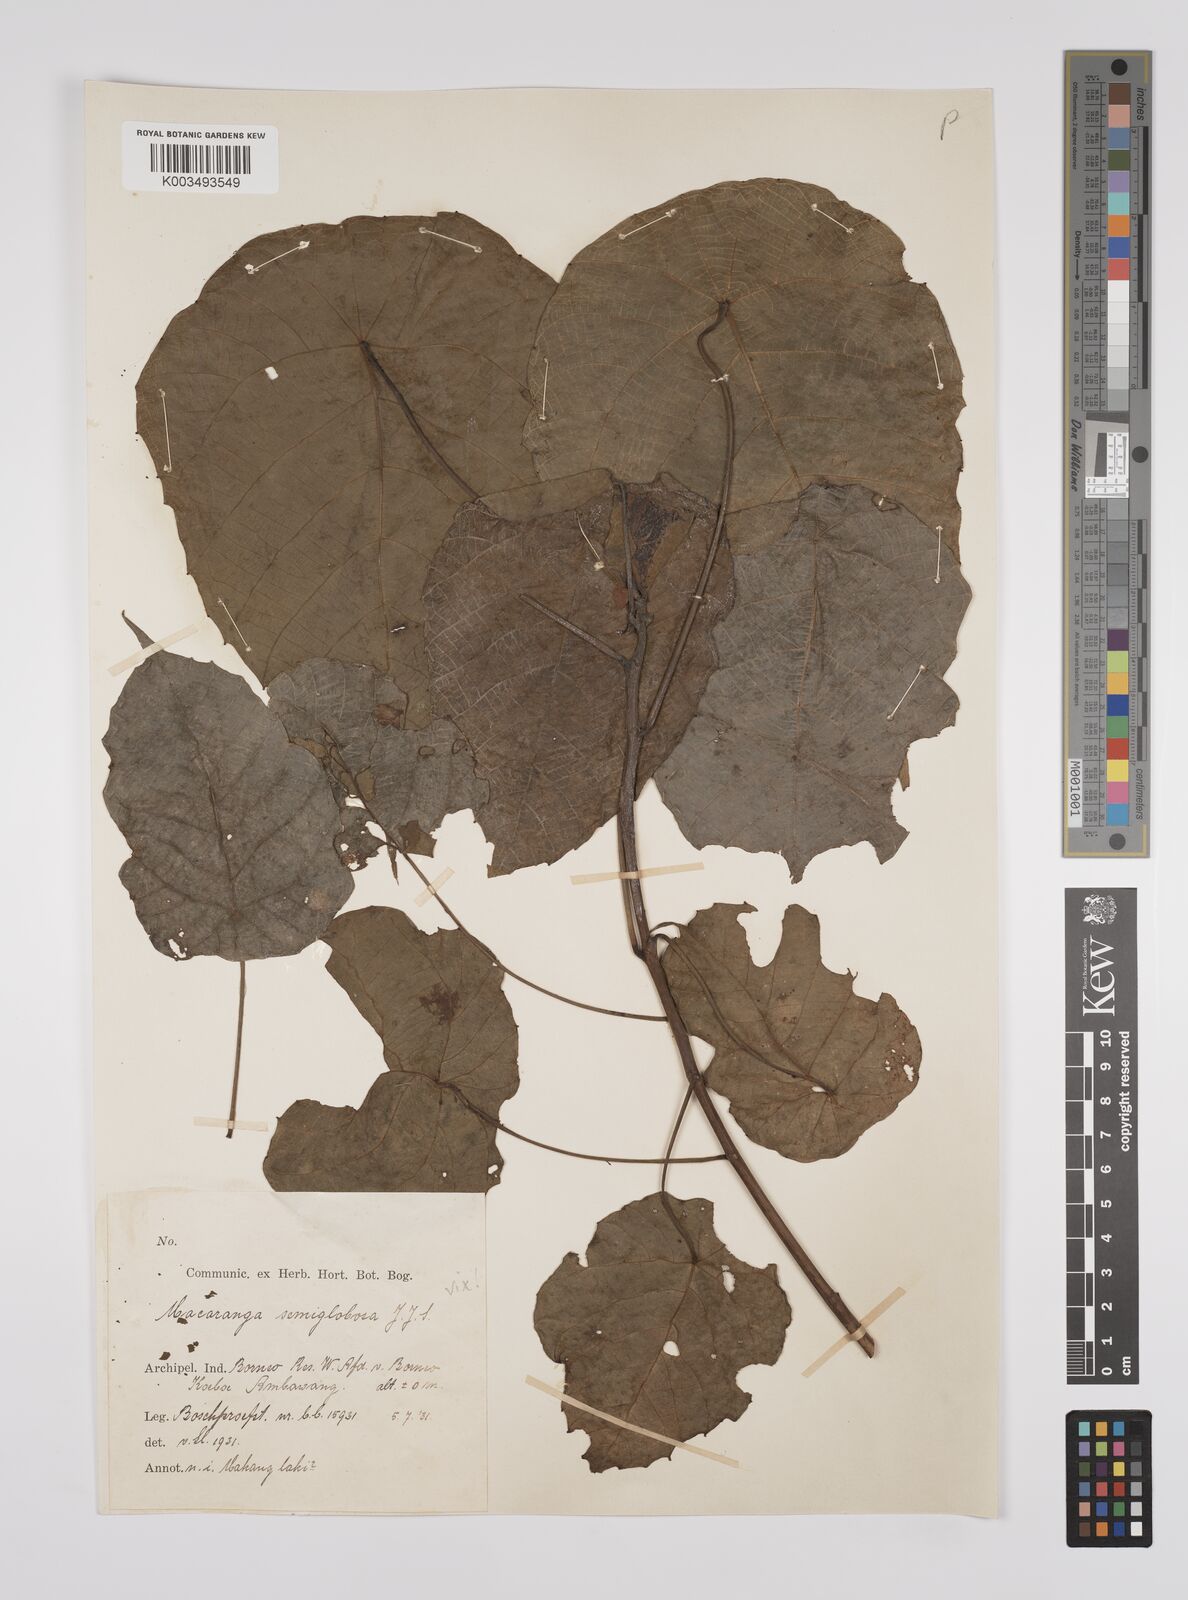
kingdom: Plantae
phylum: Tracheophyta
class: Magnoliopsida
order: Malpighiales
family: Euphorbiaceae
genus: Macaranga
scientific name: Macaranga tanarius
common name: Parasol leaf tree
